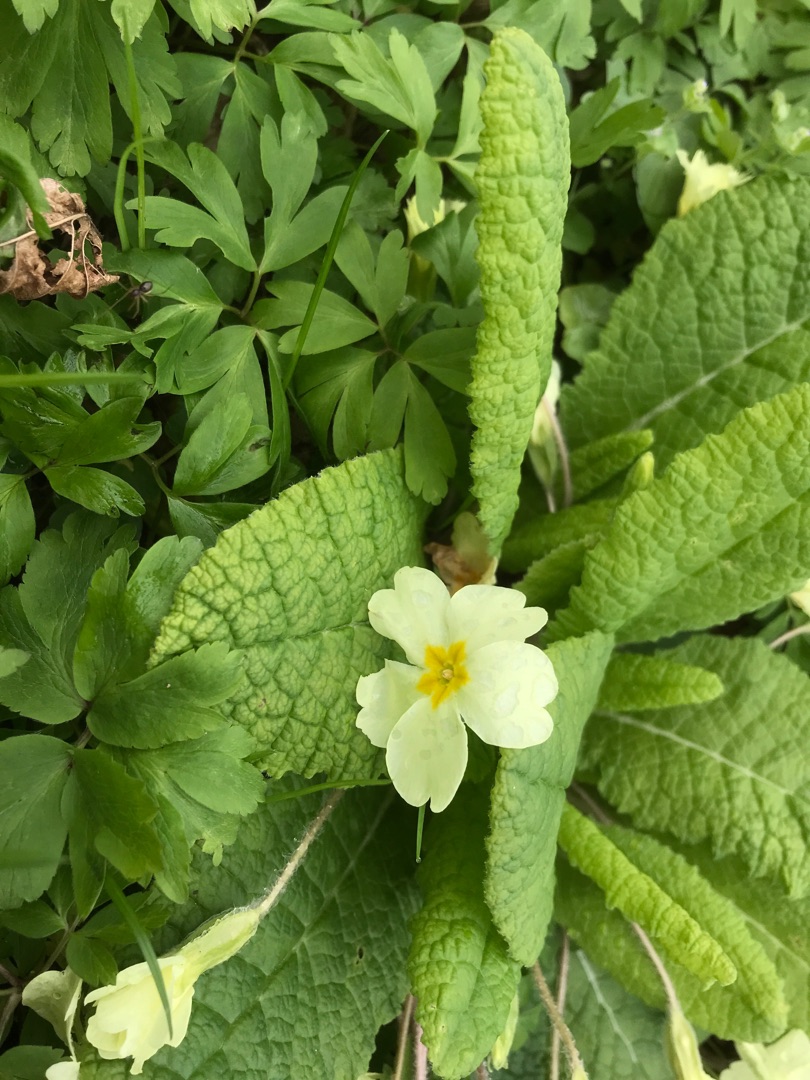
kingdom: Plantae
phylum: Tracheophyta
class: Magnoliopsida
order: Ericales
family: Primulaceae
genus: Primula
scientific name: Primula vulgaris
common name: Storblomstret kodriver
